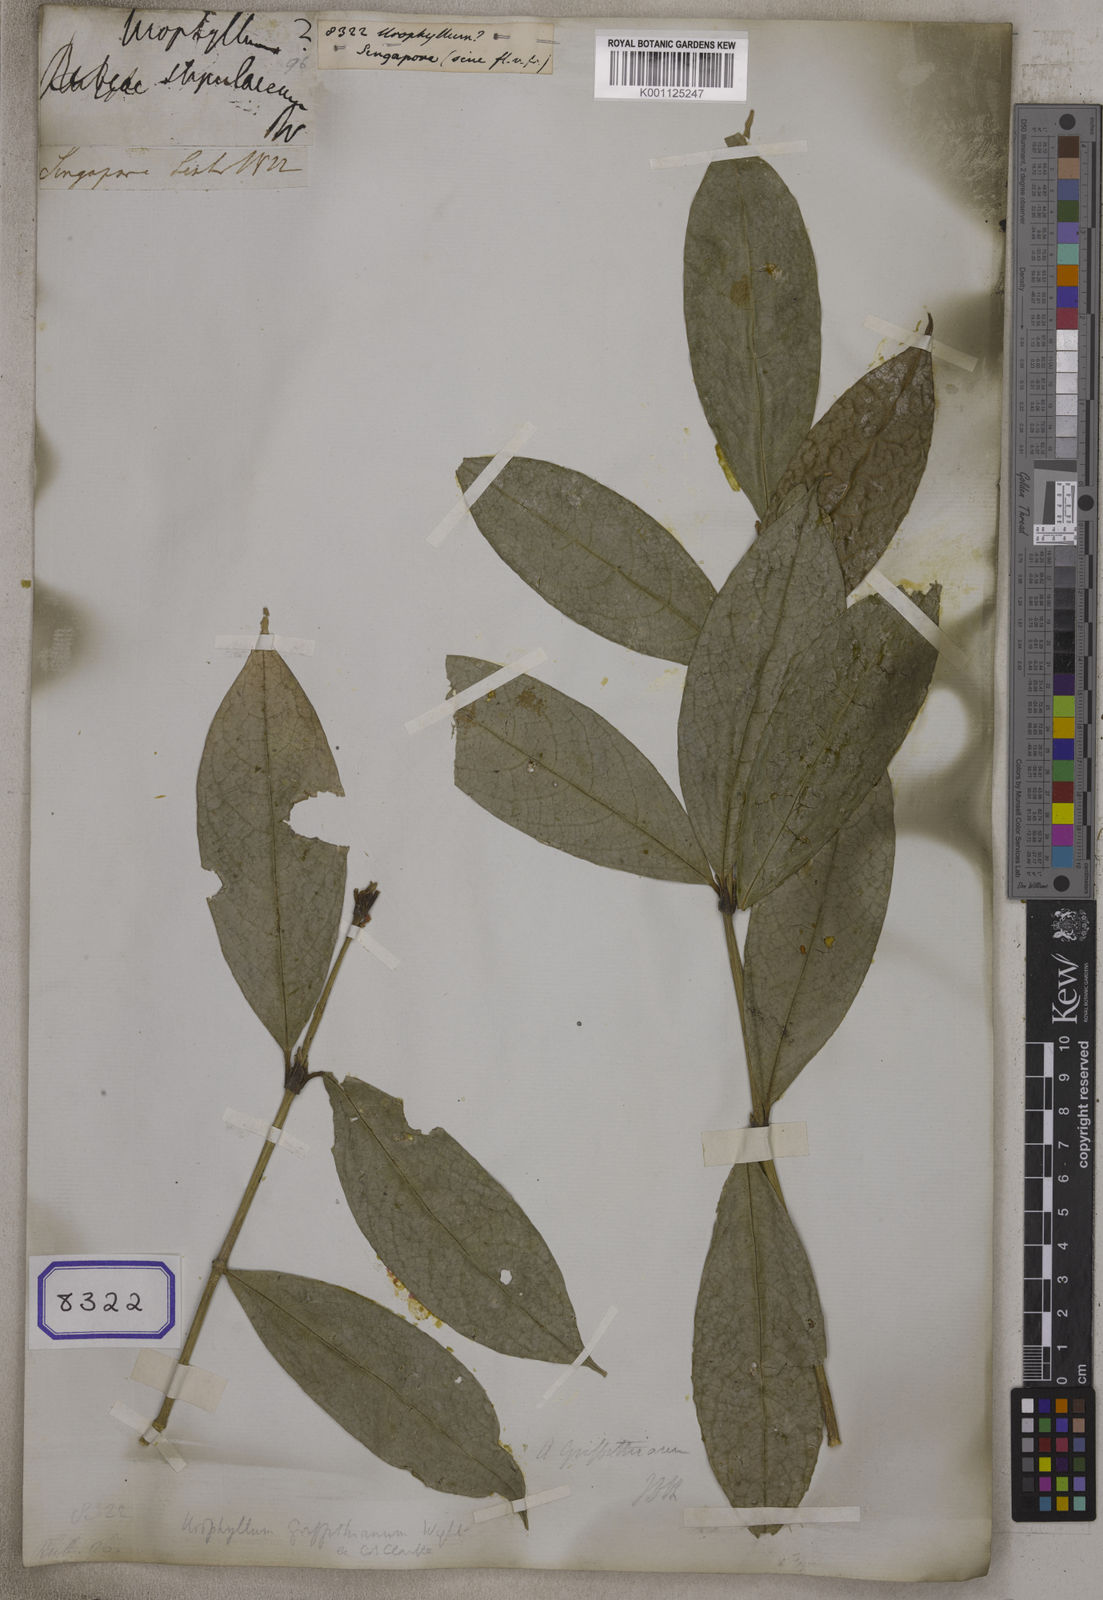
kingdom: Plantae
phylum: Tracheophyta
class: Magnoliopsida
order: Gentianales
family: Rubiaceae
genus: Urophyllum
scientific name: Urophyllum
